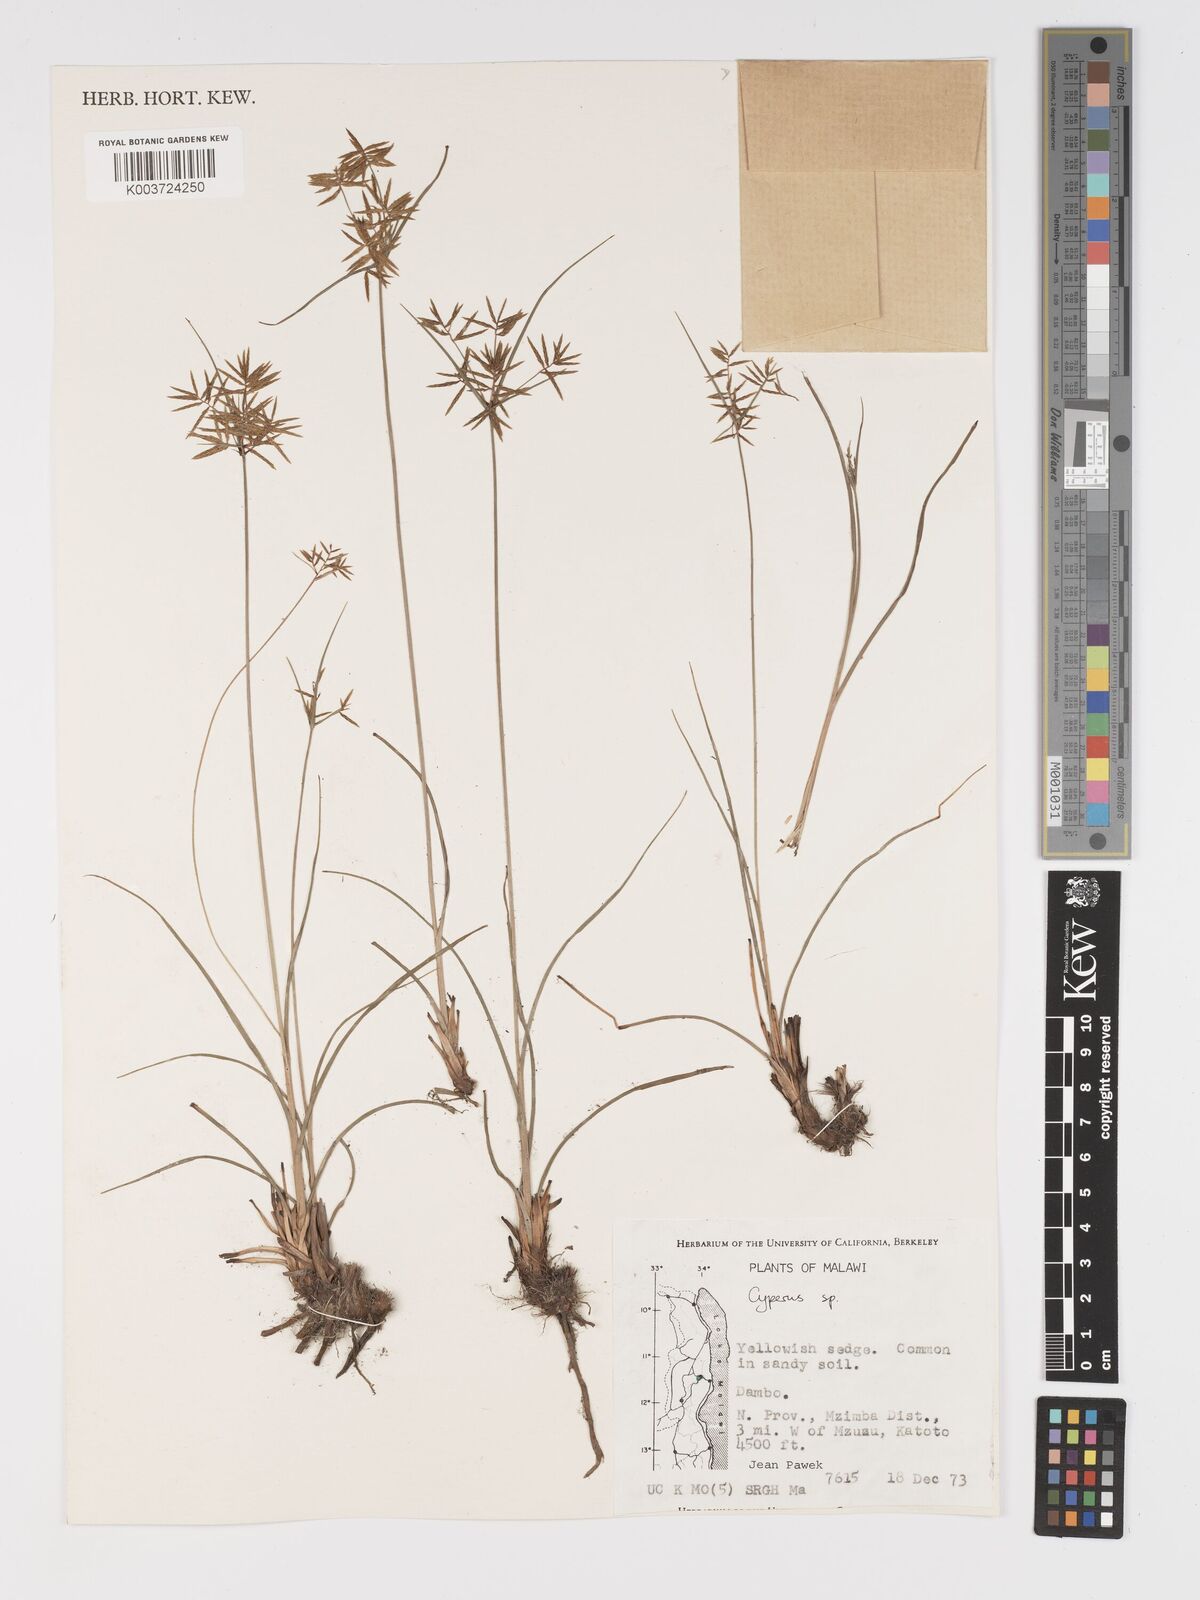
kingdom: Plantae
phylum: Tracheophyta
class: Liliopsida
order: Poales
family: Cyperaceae
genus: Cyperus
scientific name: Cyperus
